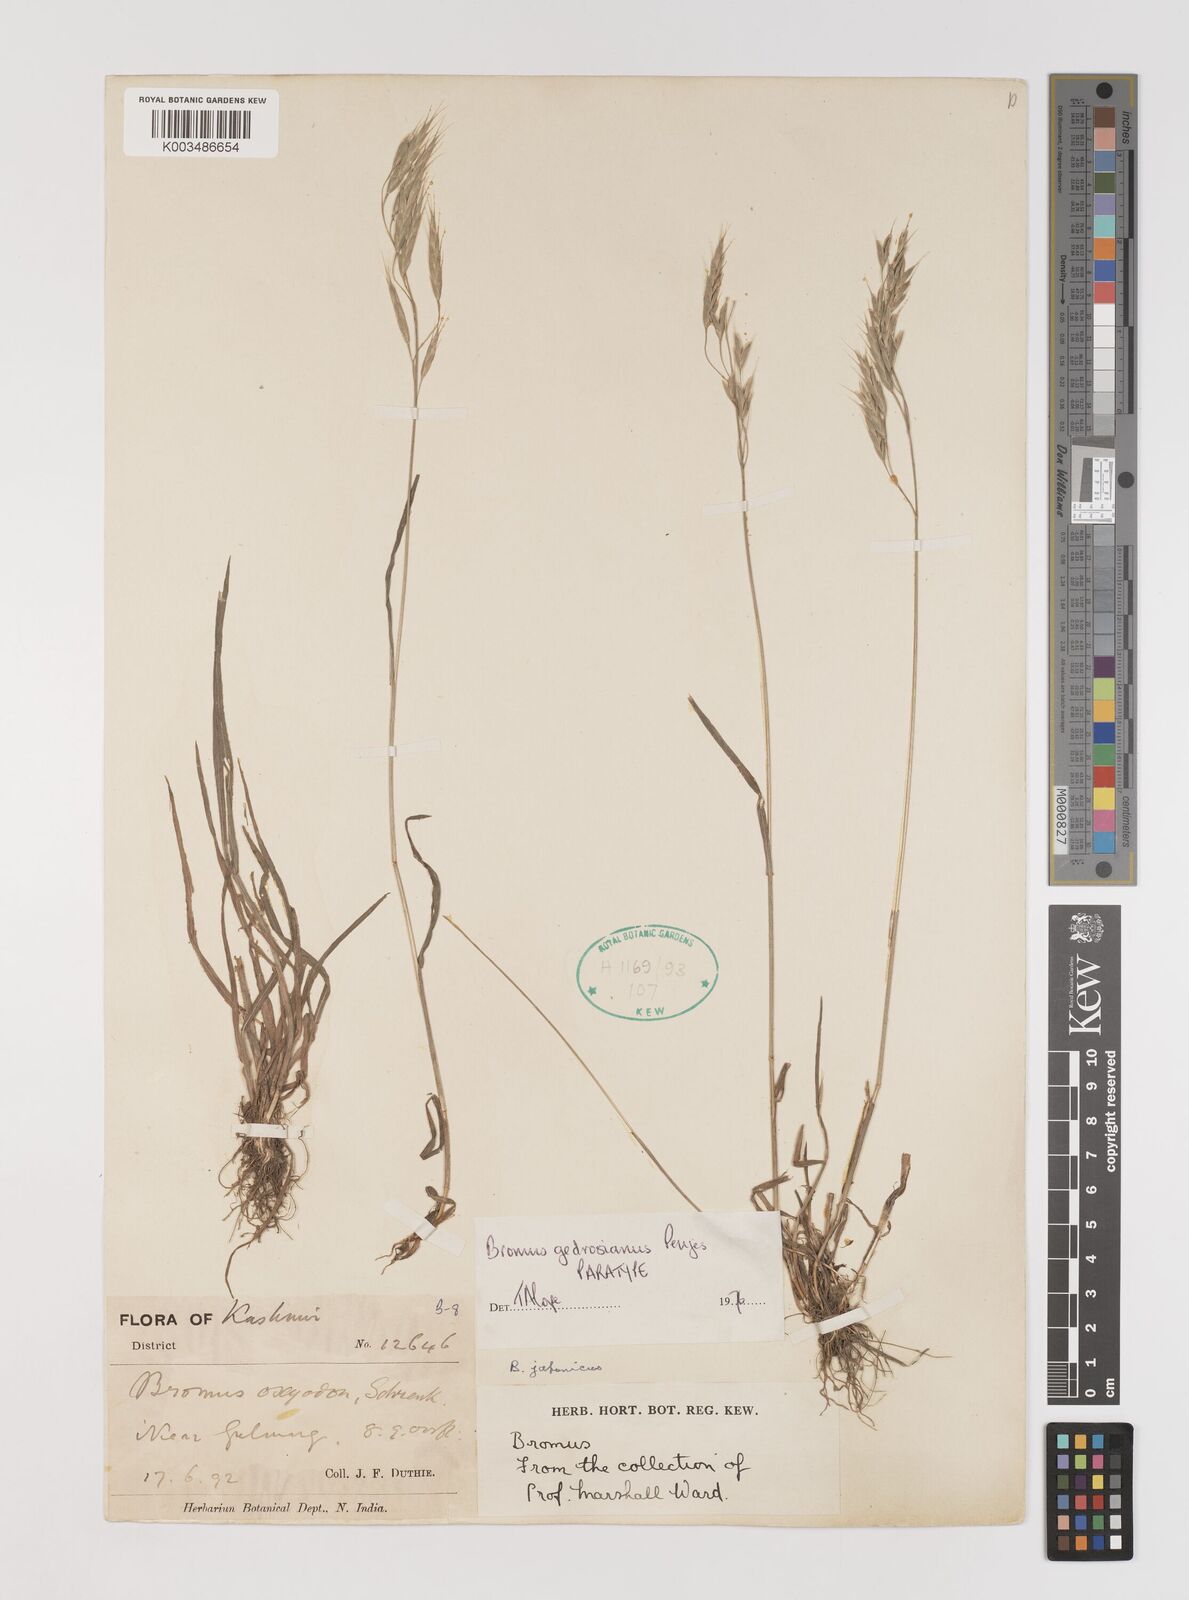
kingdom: Plantae
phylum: Tracheophyta
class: Liliopsida
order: Poales
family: Poaceae
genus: Bromus
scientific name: Bromus pectinatus
